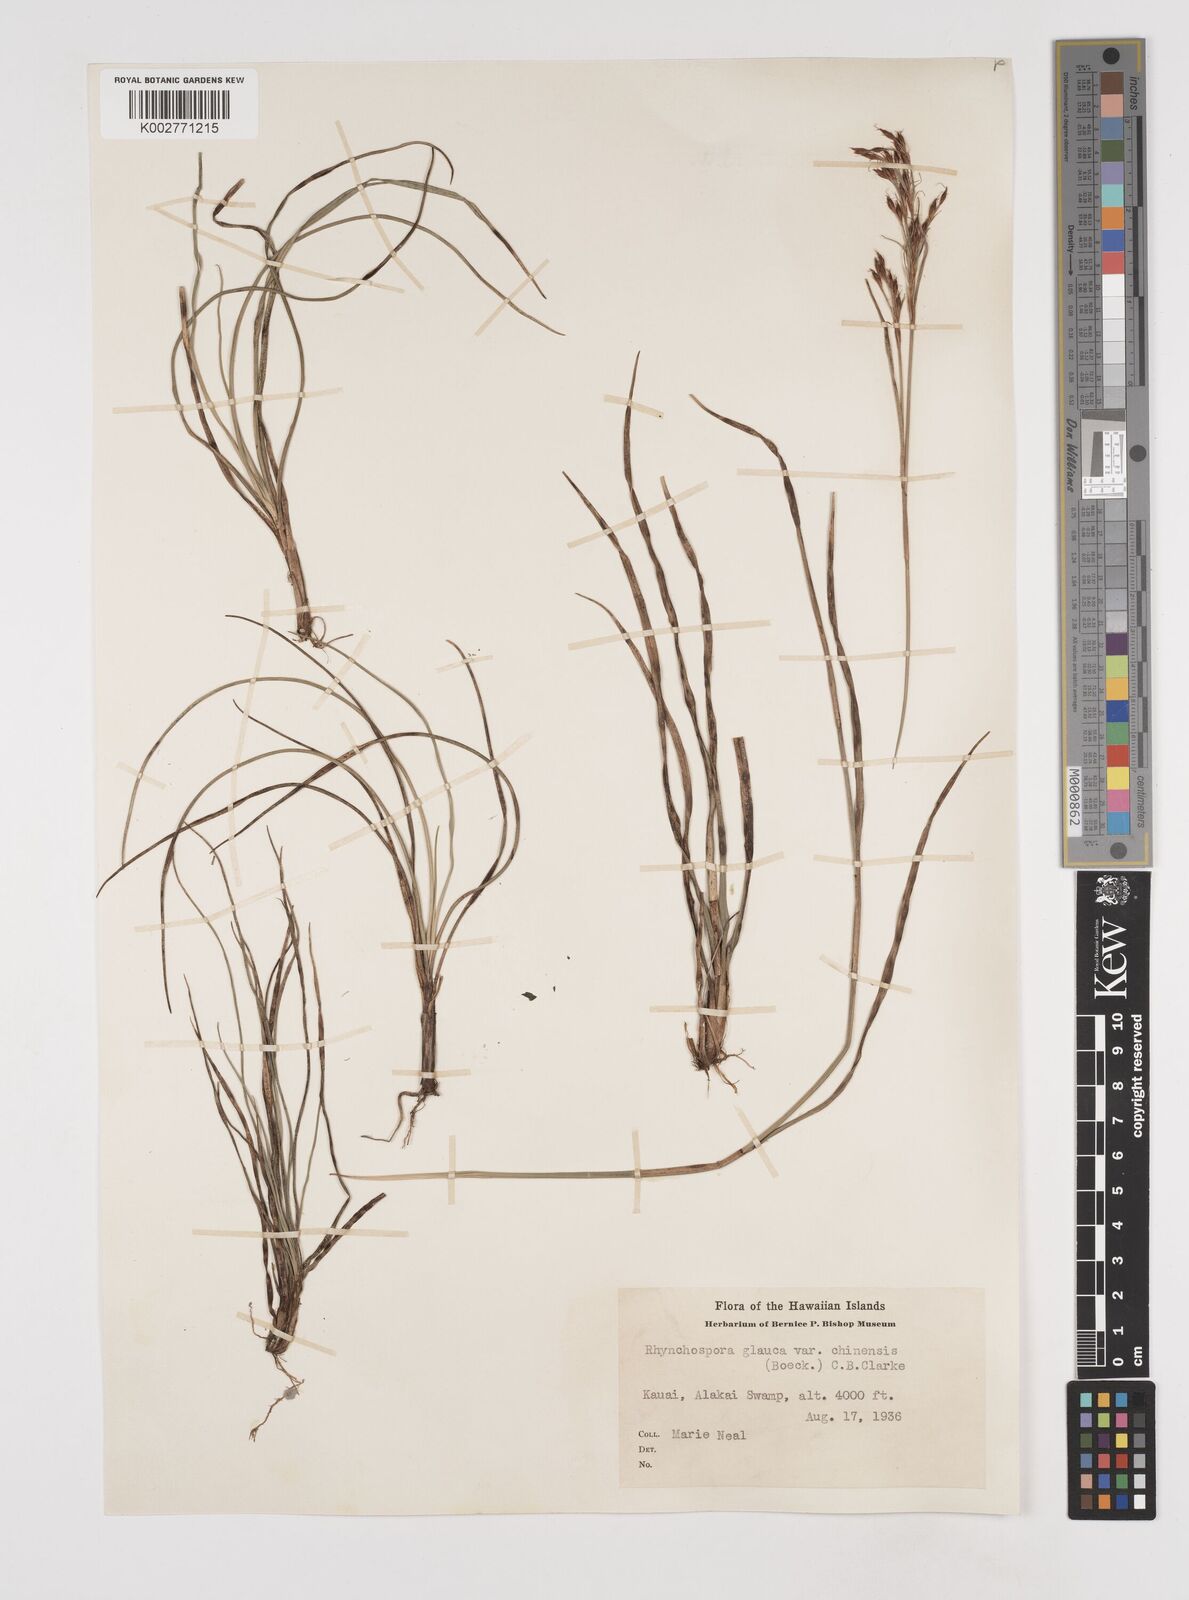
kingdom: Plantae
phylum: Tracheophyta
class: Liliopsida
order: Poales
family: Cyperaceae
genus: Rhynchospora
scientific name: Rhynchospora rugosa
